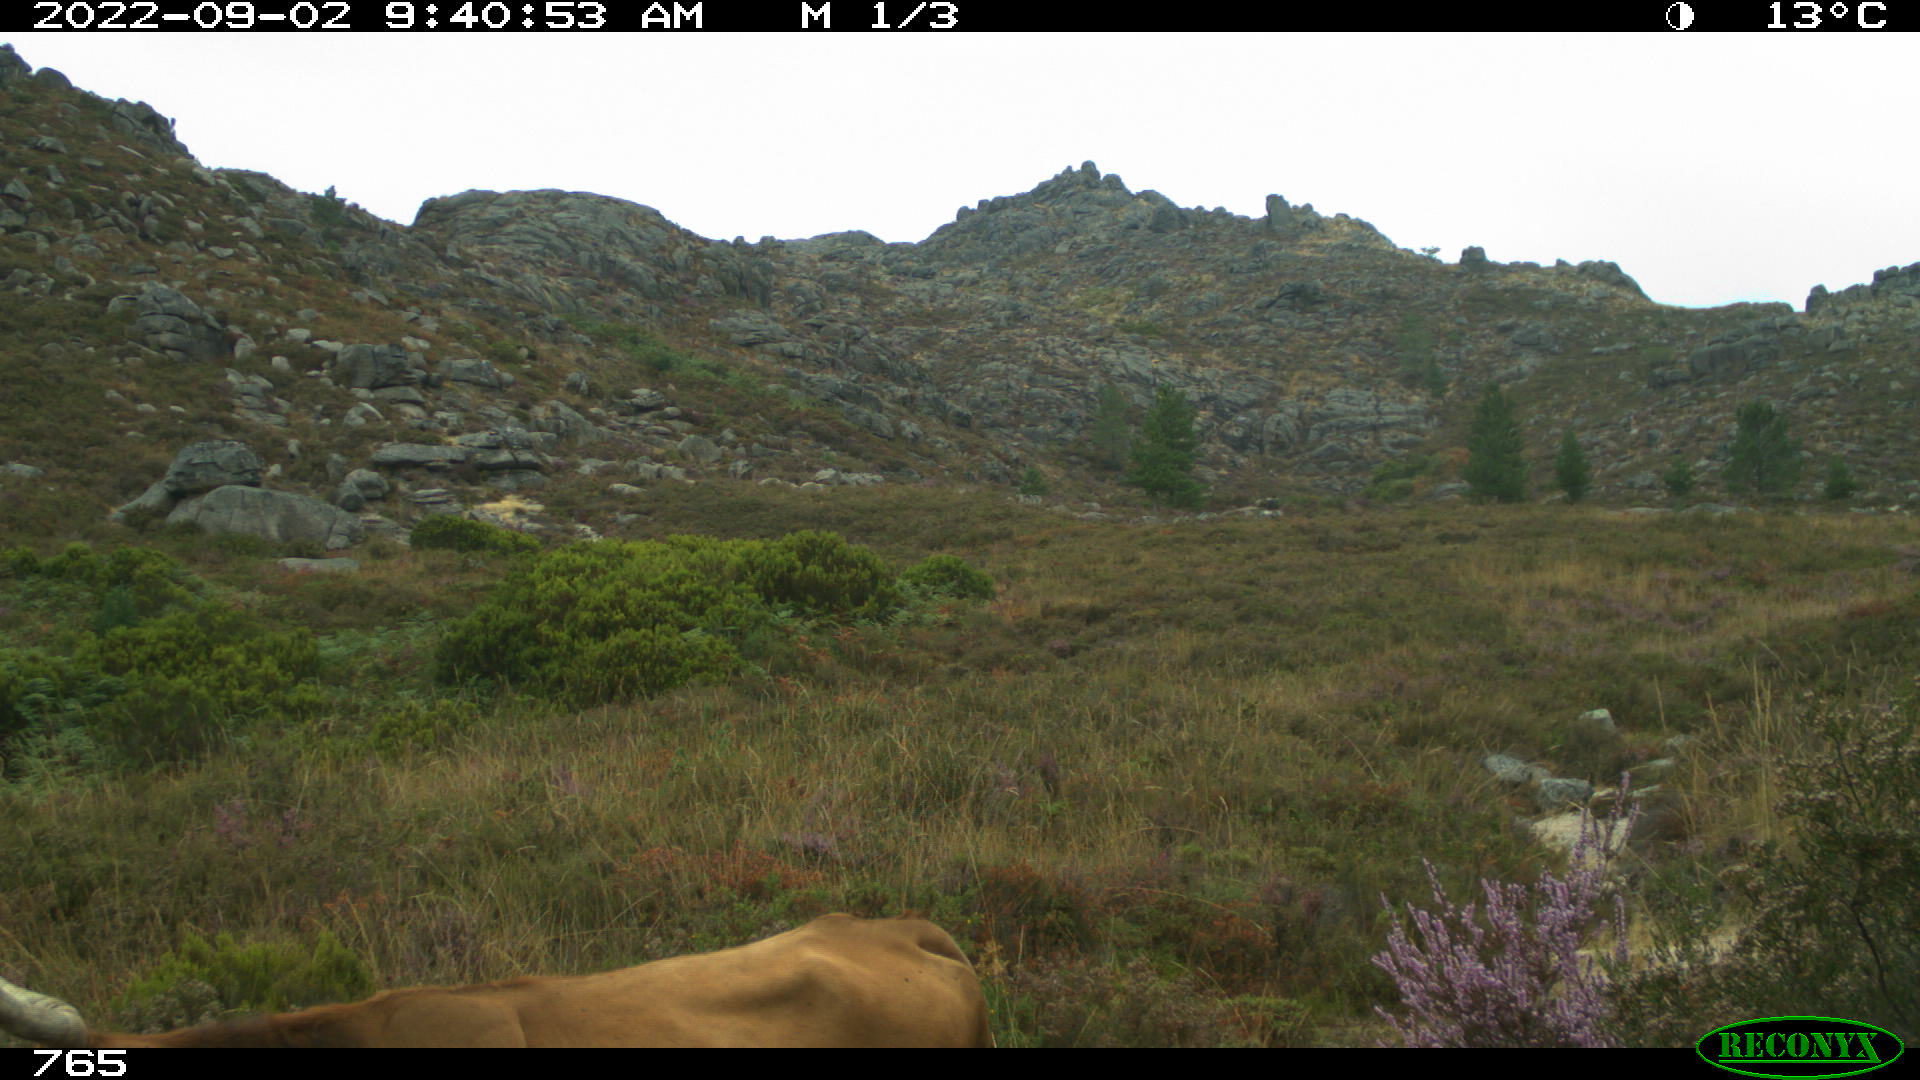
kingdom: Animalia
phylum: Chordata
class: Mammalia
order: Artiodactyla
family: Bovidae
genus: Bos
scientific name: Bos taurus
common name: Domesticated cattle
